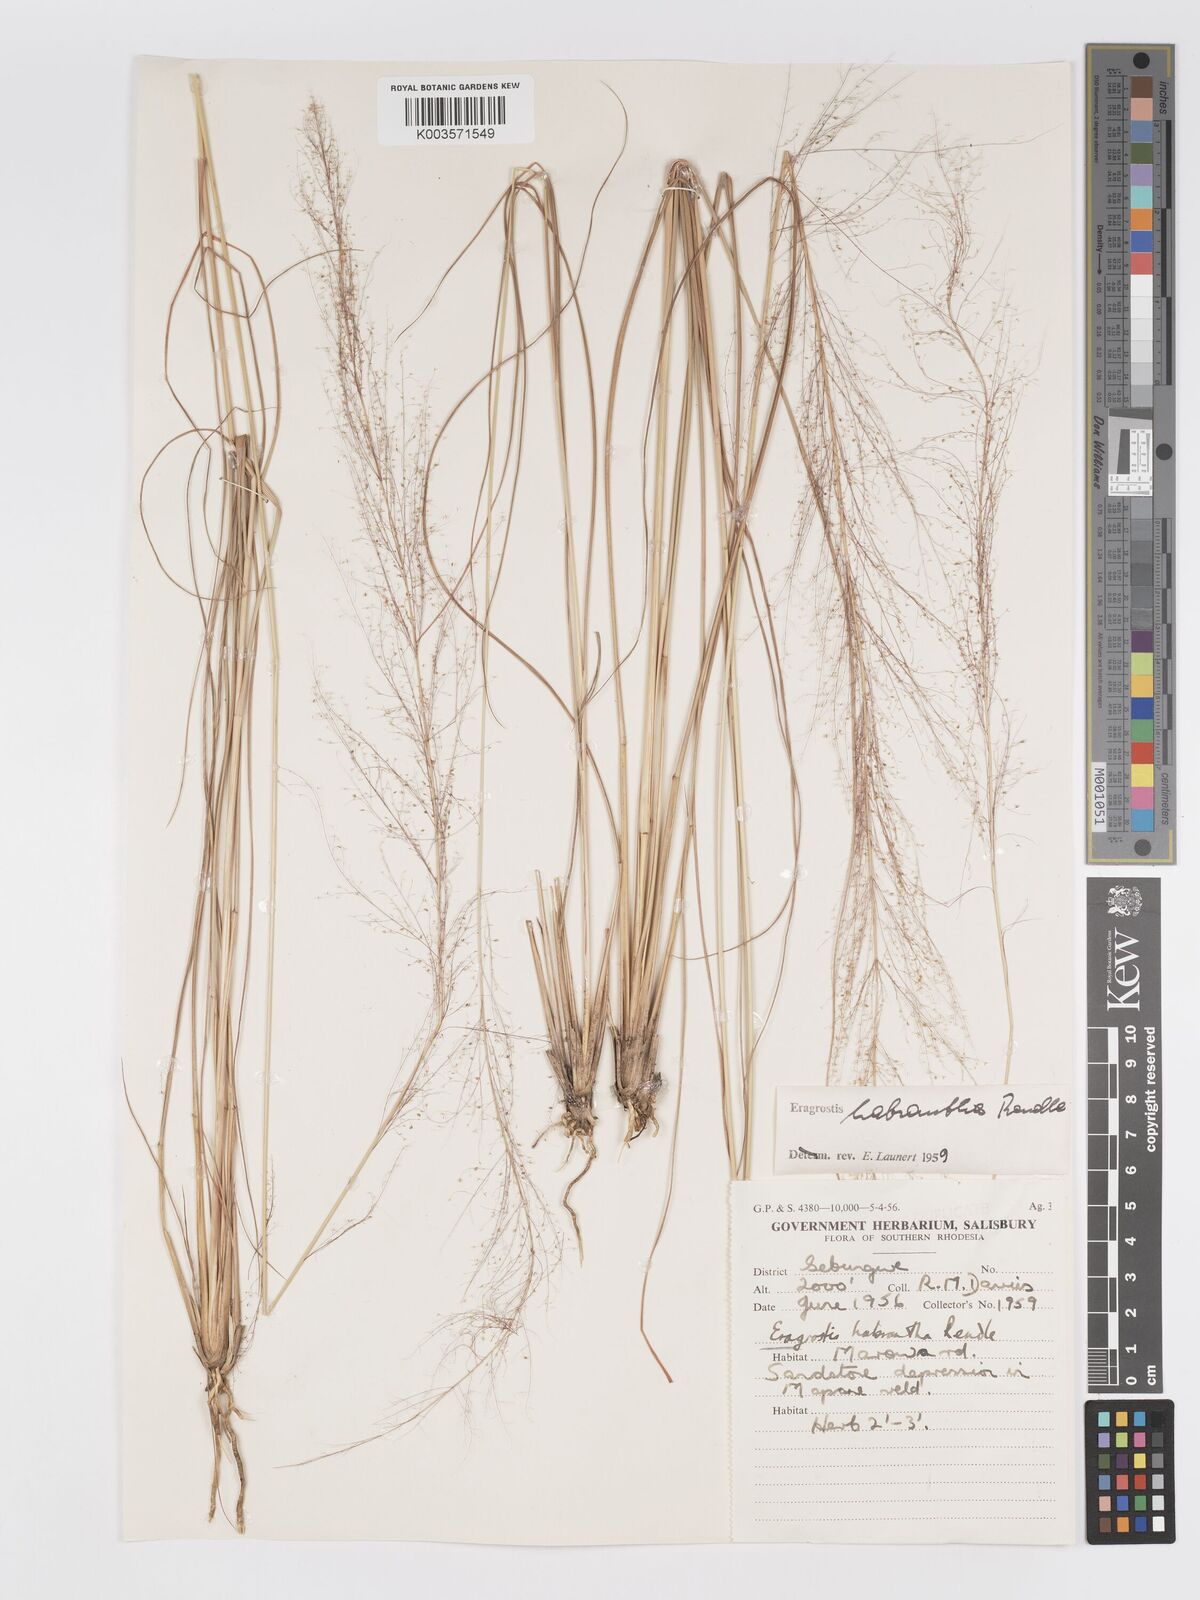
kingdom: Plantae
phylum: Tracheophyta
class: Liliopsida
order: Poales
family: Poaceae
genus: Eragrostis
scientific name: Eragrostis habrantha
